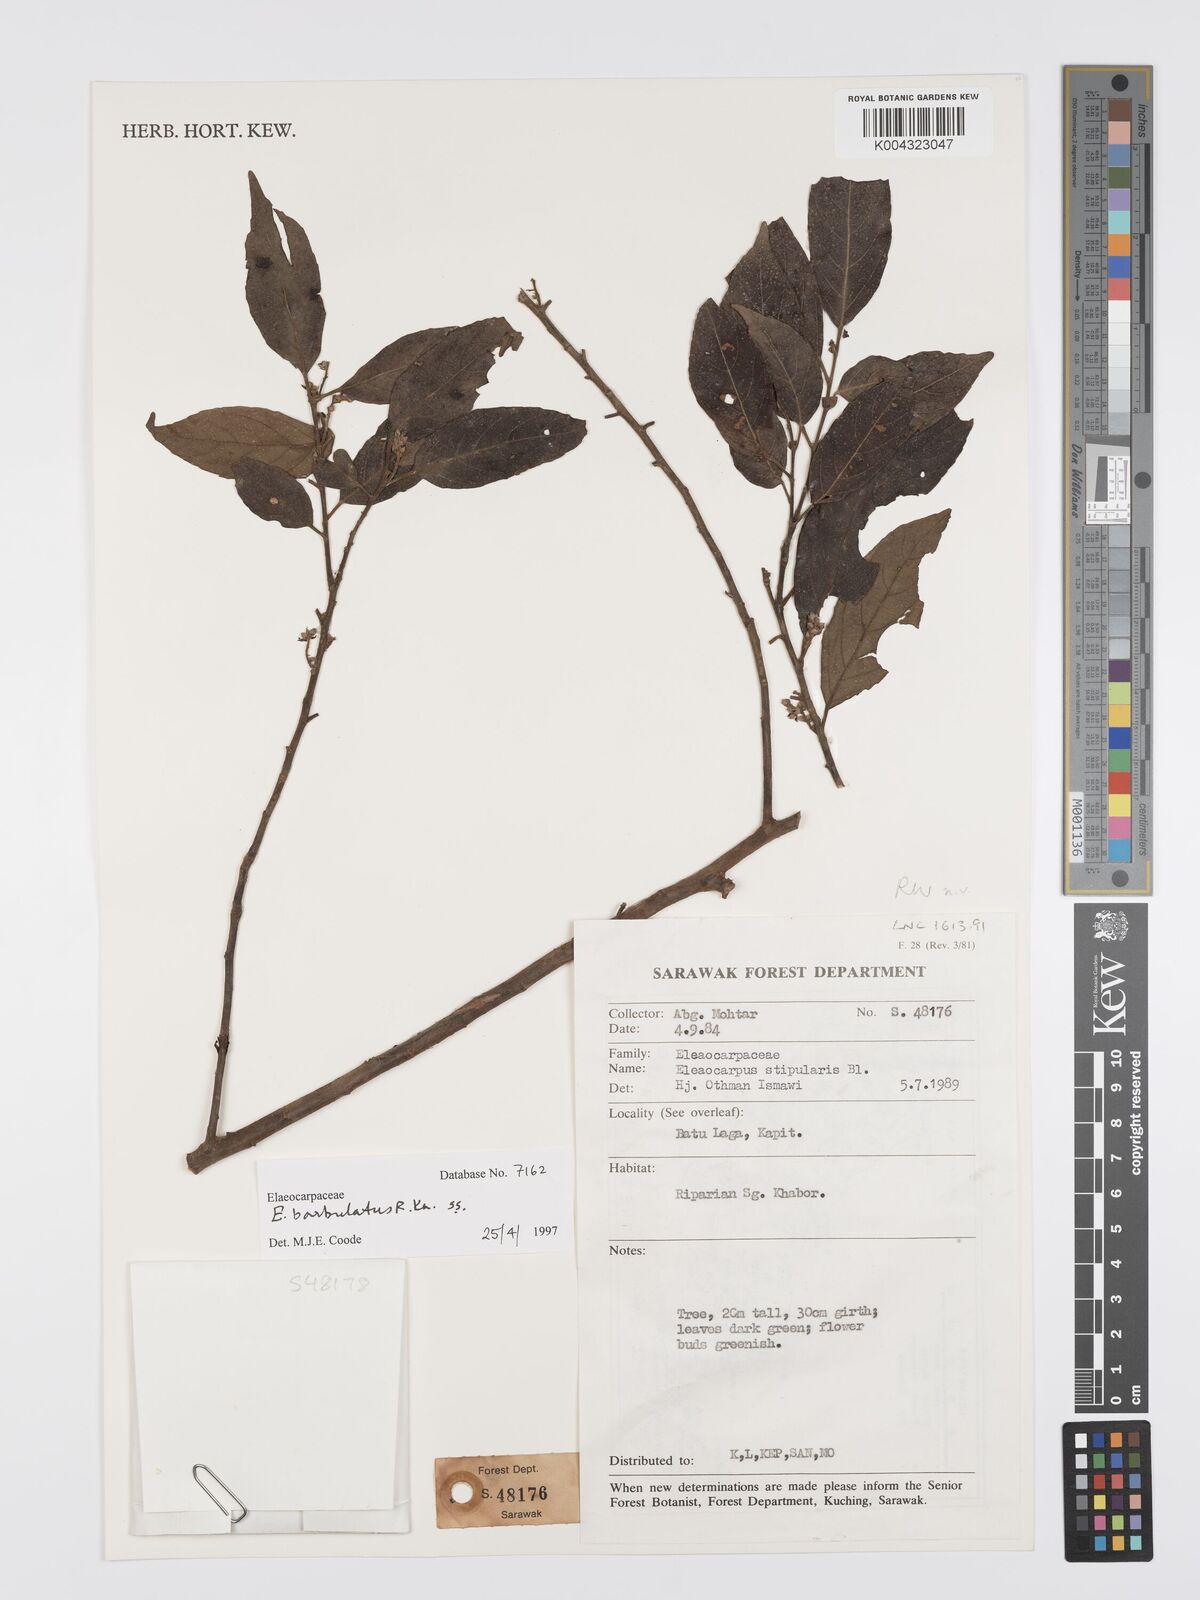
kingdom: Plantae
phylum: Tracheophyta
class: Magnoliopsida
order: Oxalidales
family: Elaeocarpaceae
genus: Elaeocarpus
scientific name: Elaeocarpus barbulatus
